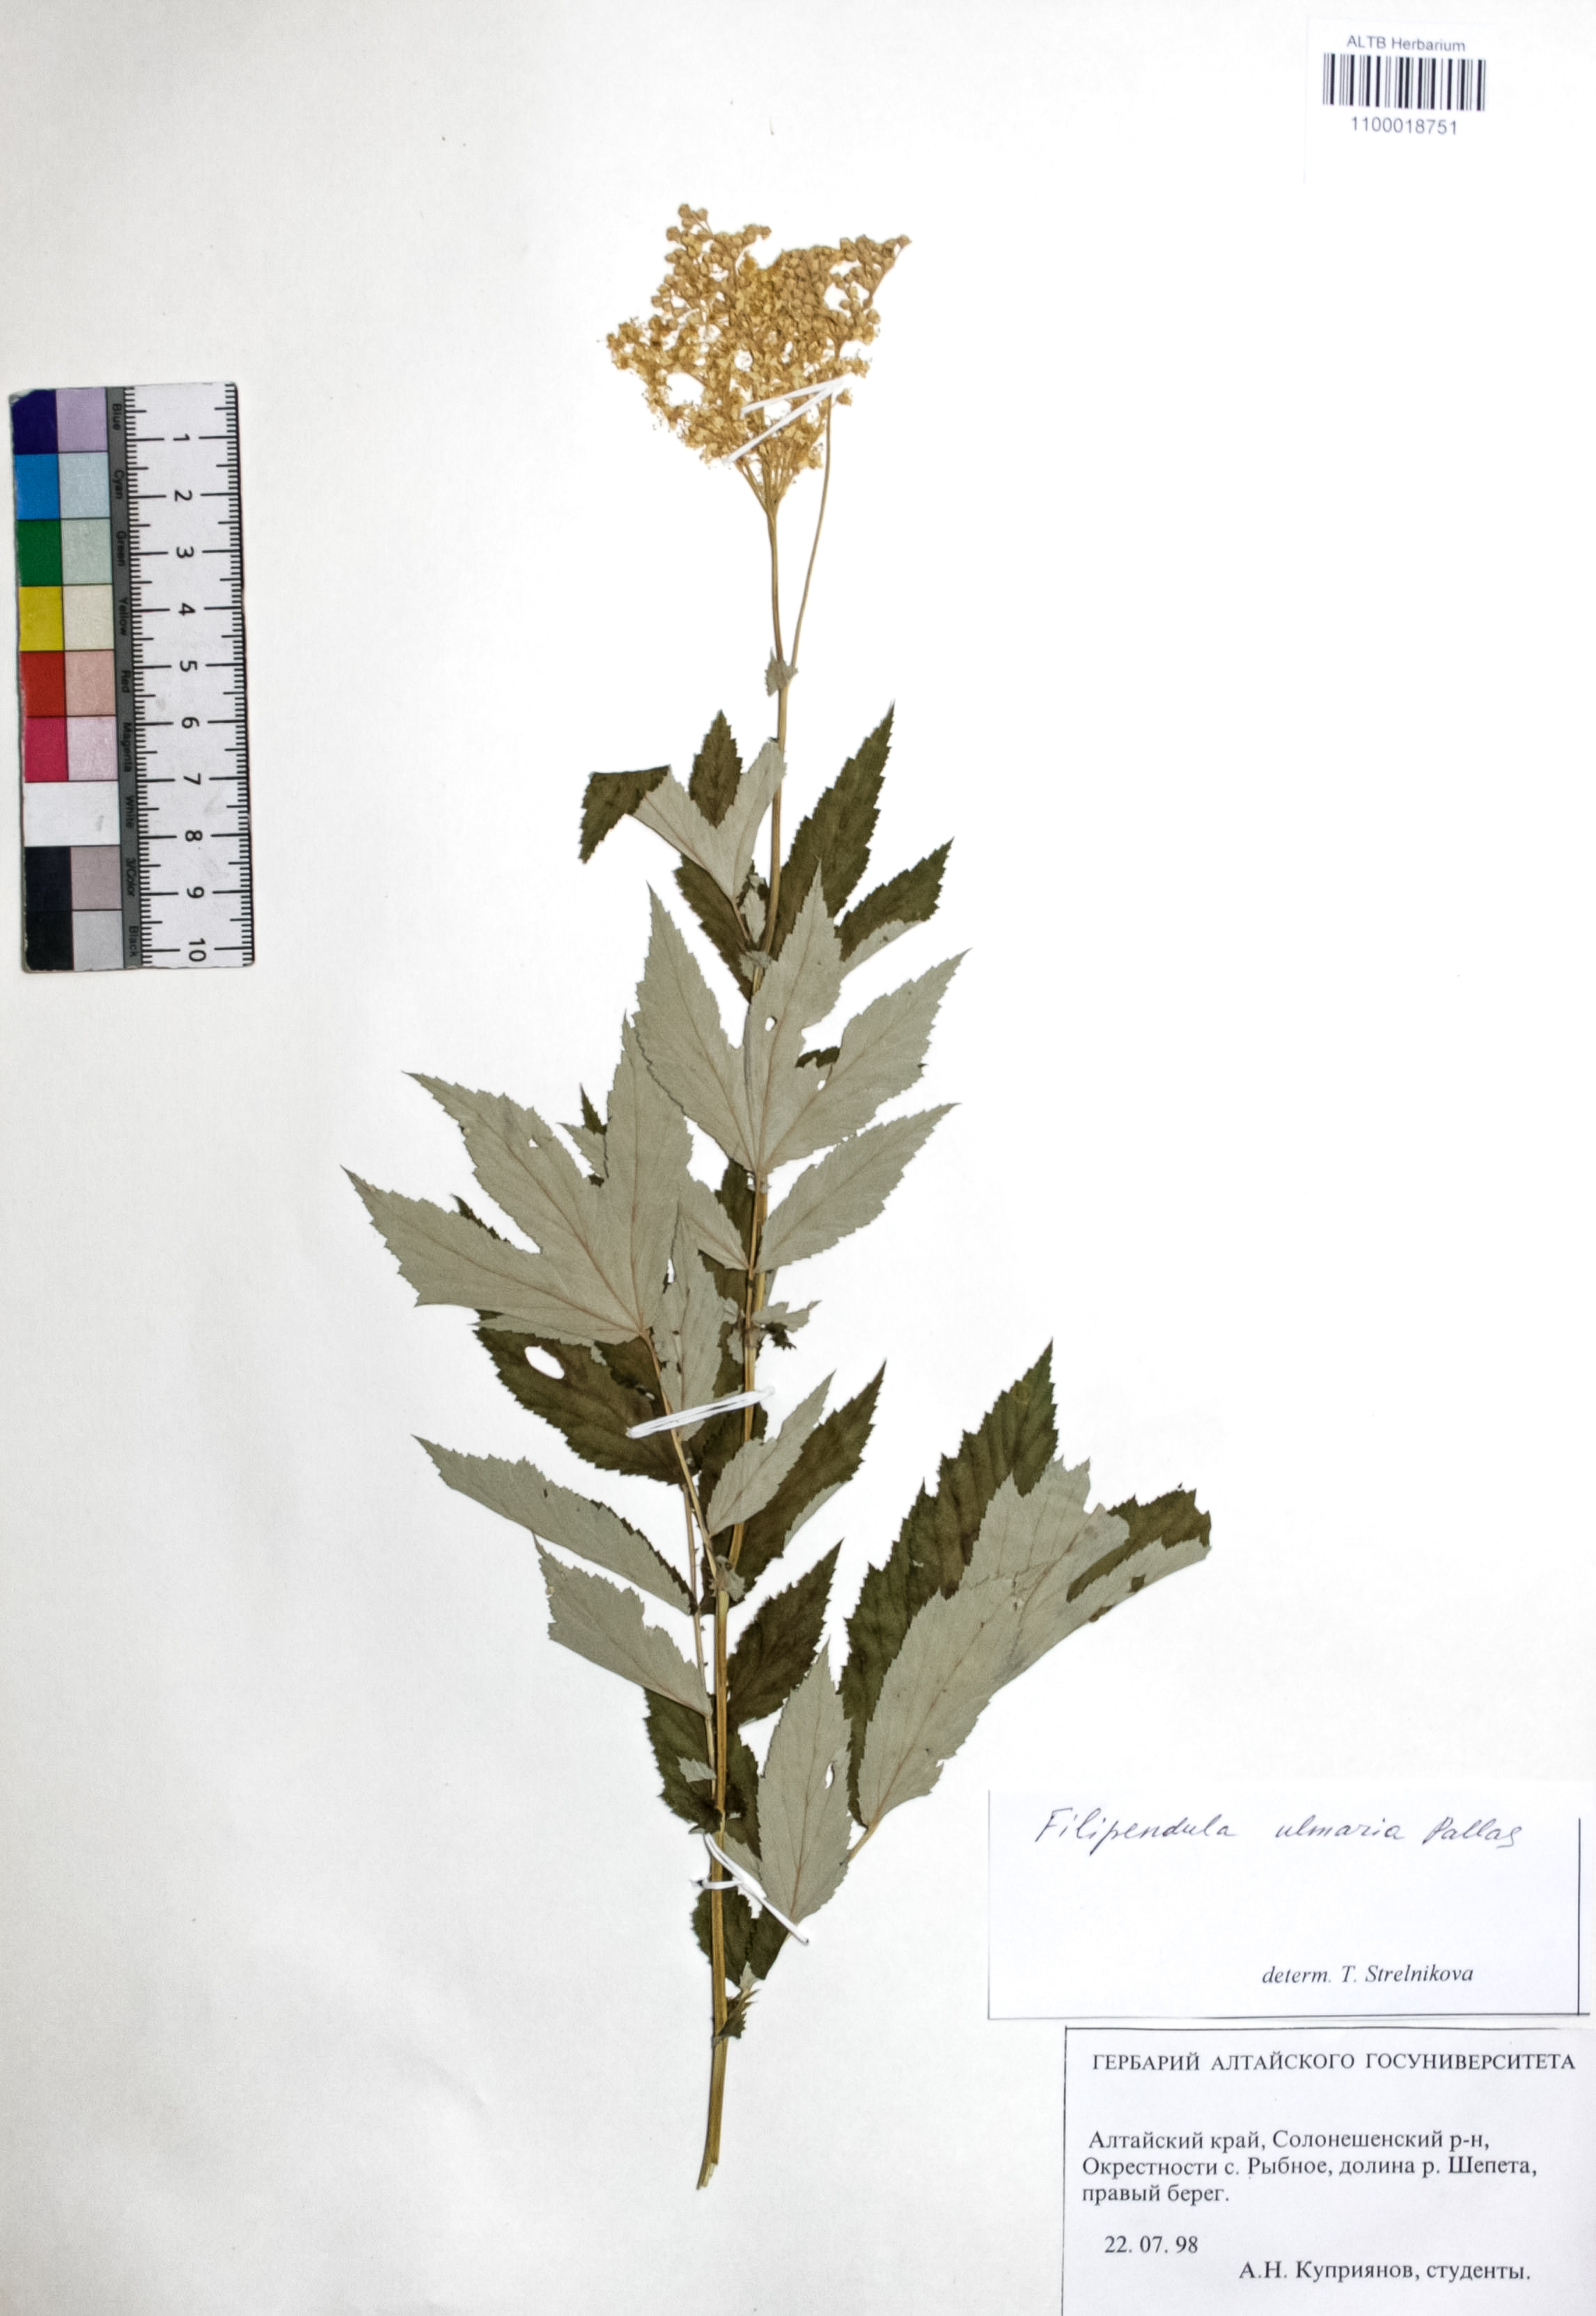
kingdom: Plantae
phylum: Tracheophyta
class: Magnoliopsida
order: Rosales
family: Rosaceae
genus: Filipendula
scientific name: Filipendula ulmaria
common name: Meadowsweet
